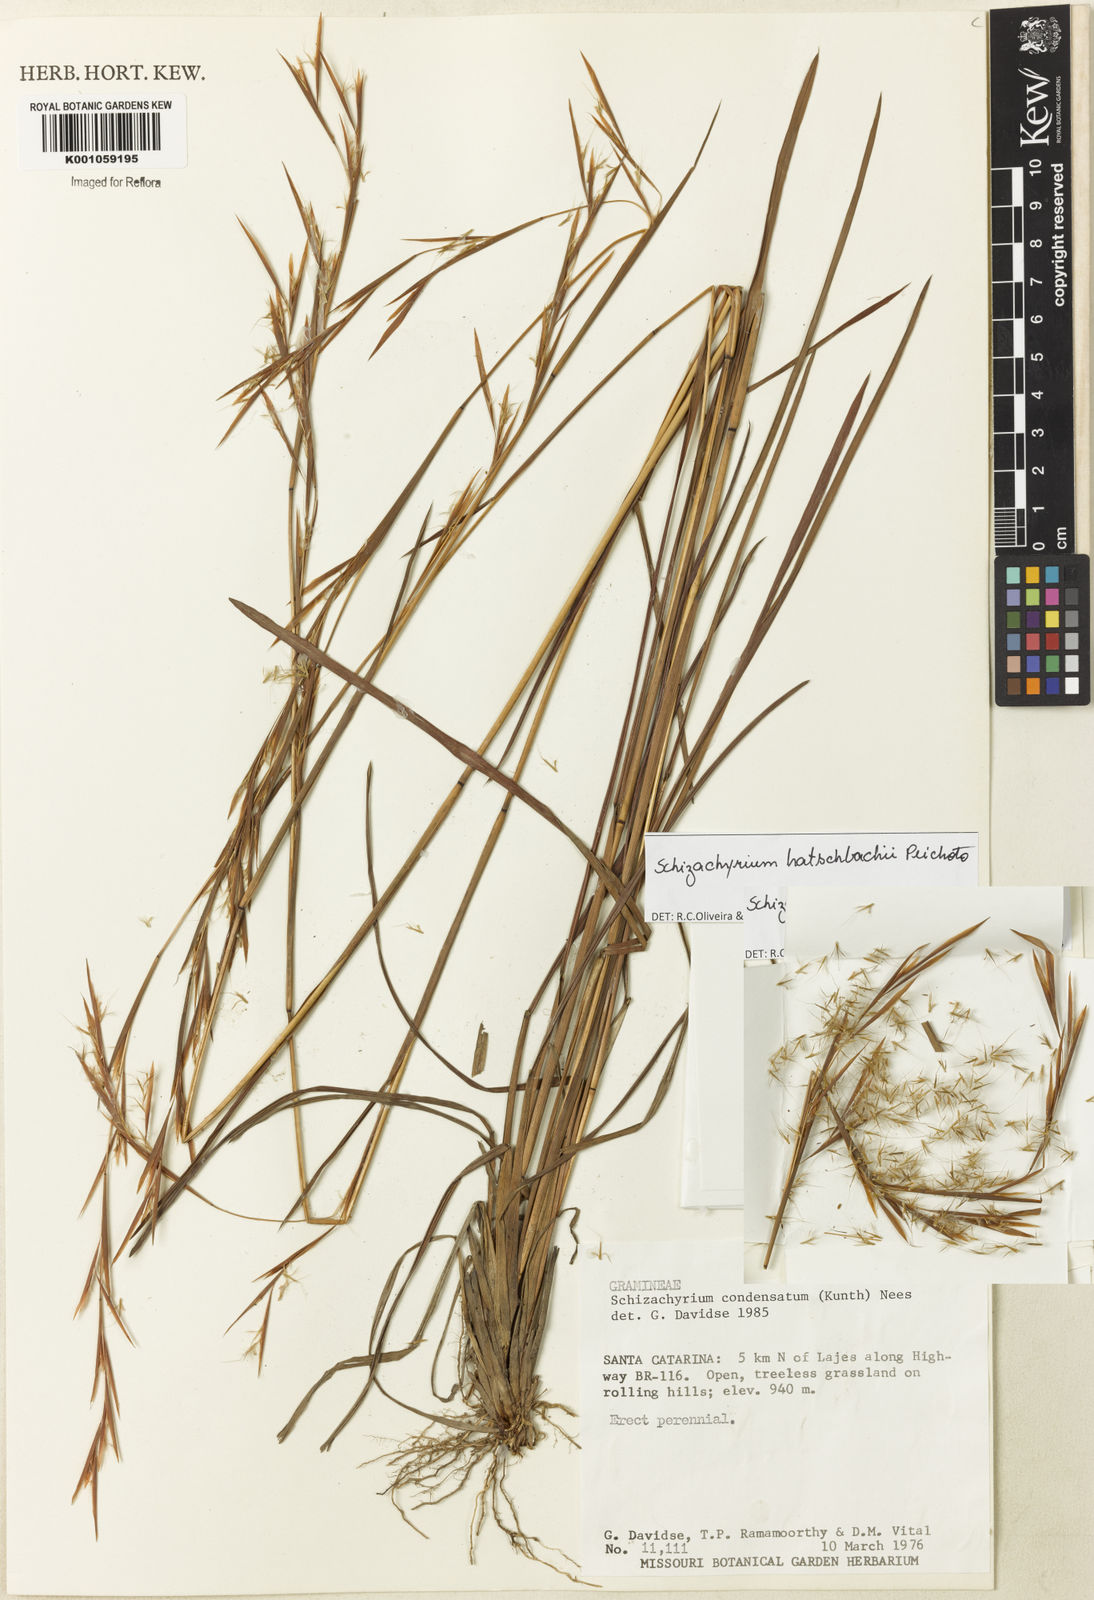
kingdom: Plantae
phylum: Tracheophyta
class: Liliopsida
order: Poales
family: Poaceae
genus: Schizachyrium
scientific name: Schizachyrium hatschbachii
